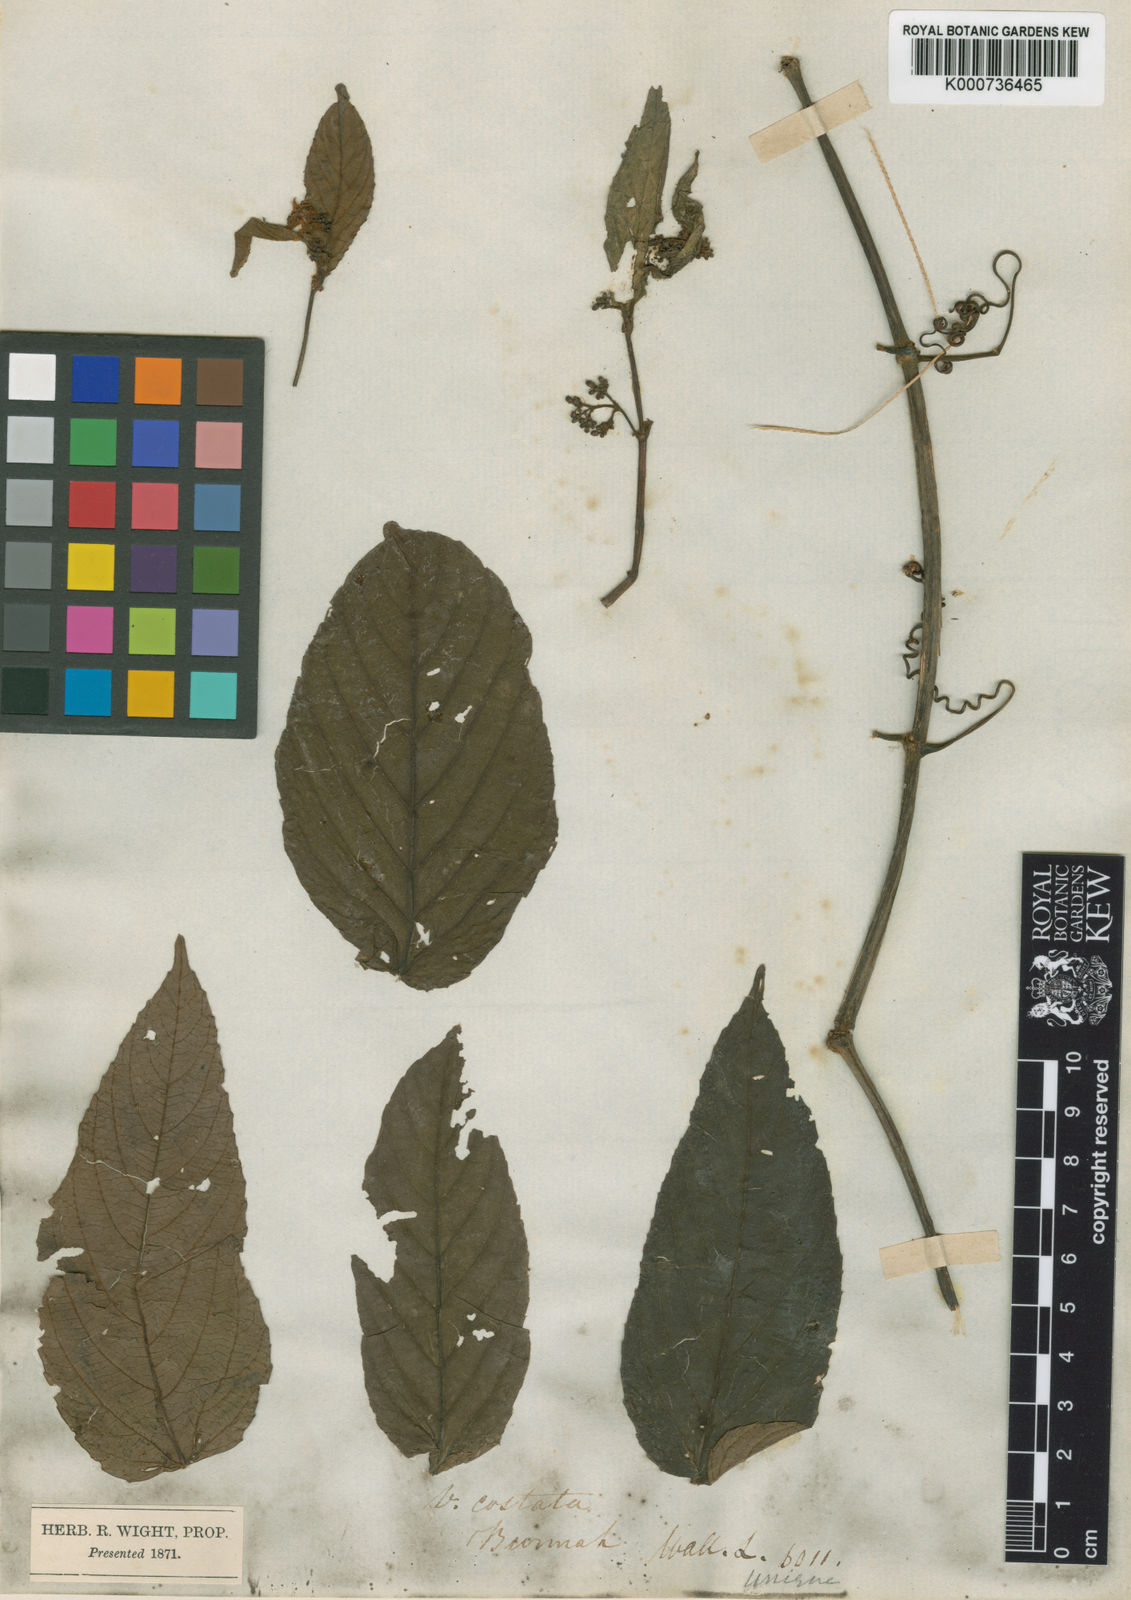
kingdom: Plantae
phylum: Tracheophyta
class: Magnoliopsida
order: Vitales
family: Vitaceae
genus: Cissus
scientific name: Cissus discolor
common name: Climbing-begonia
